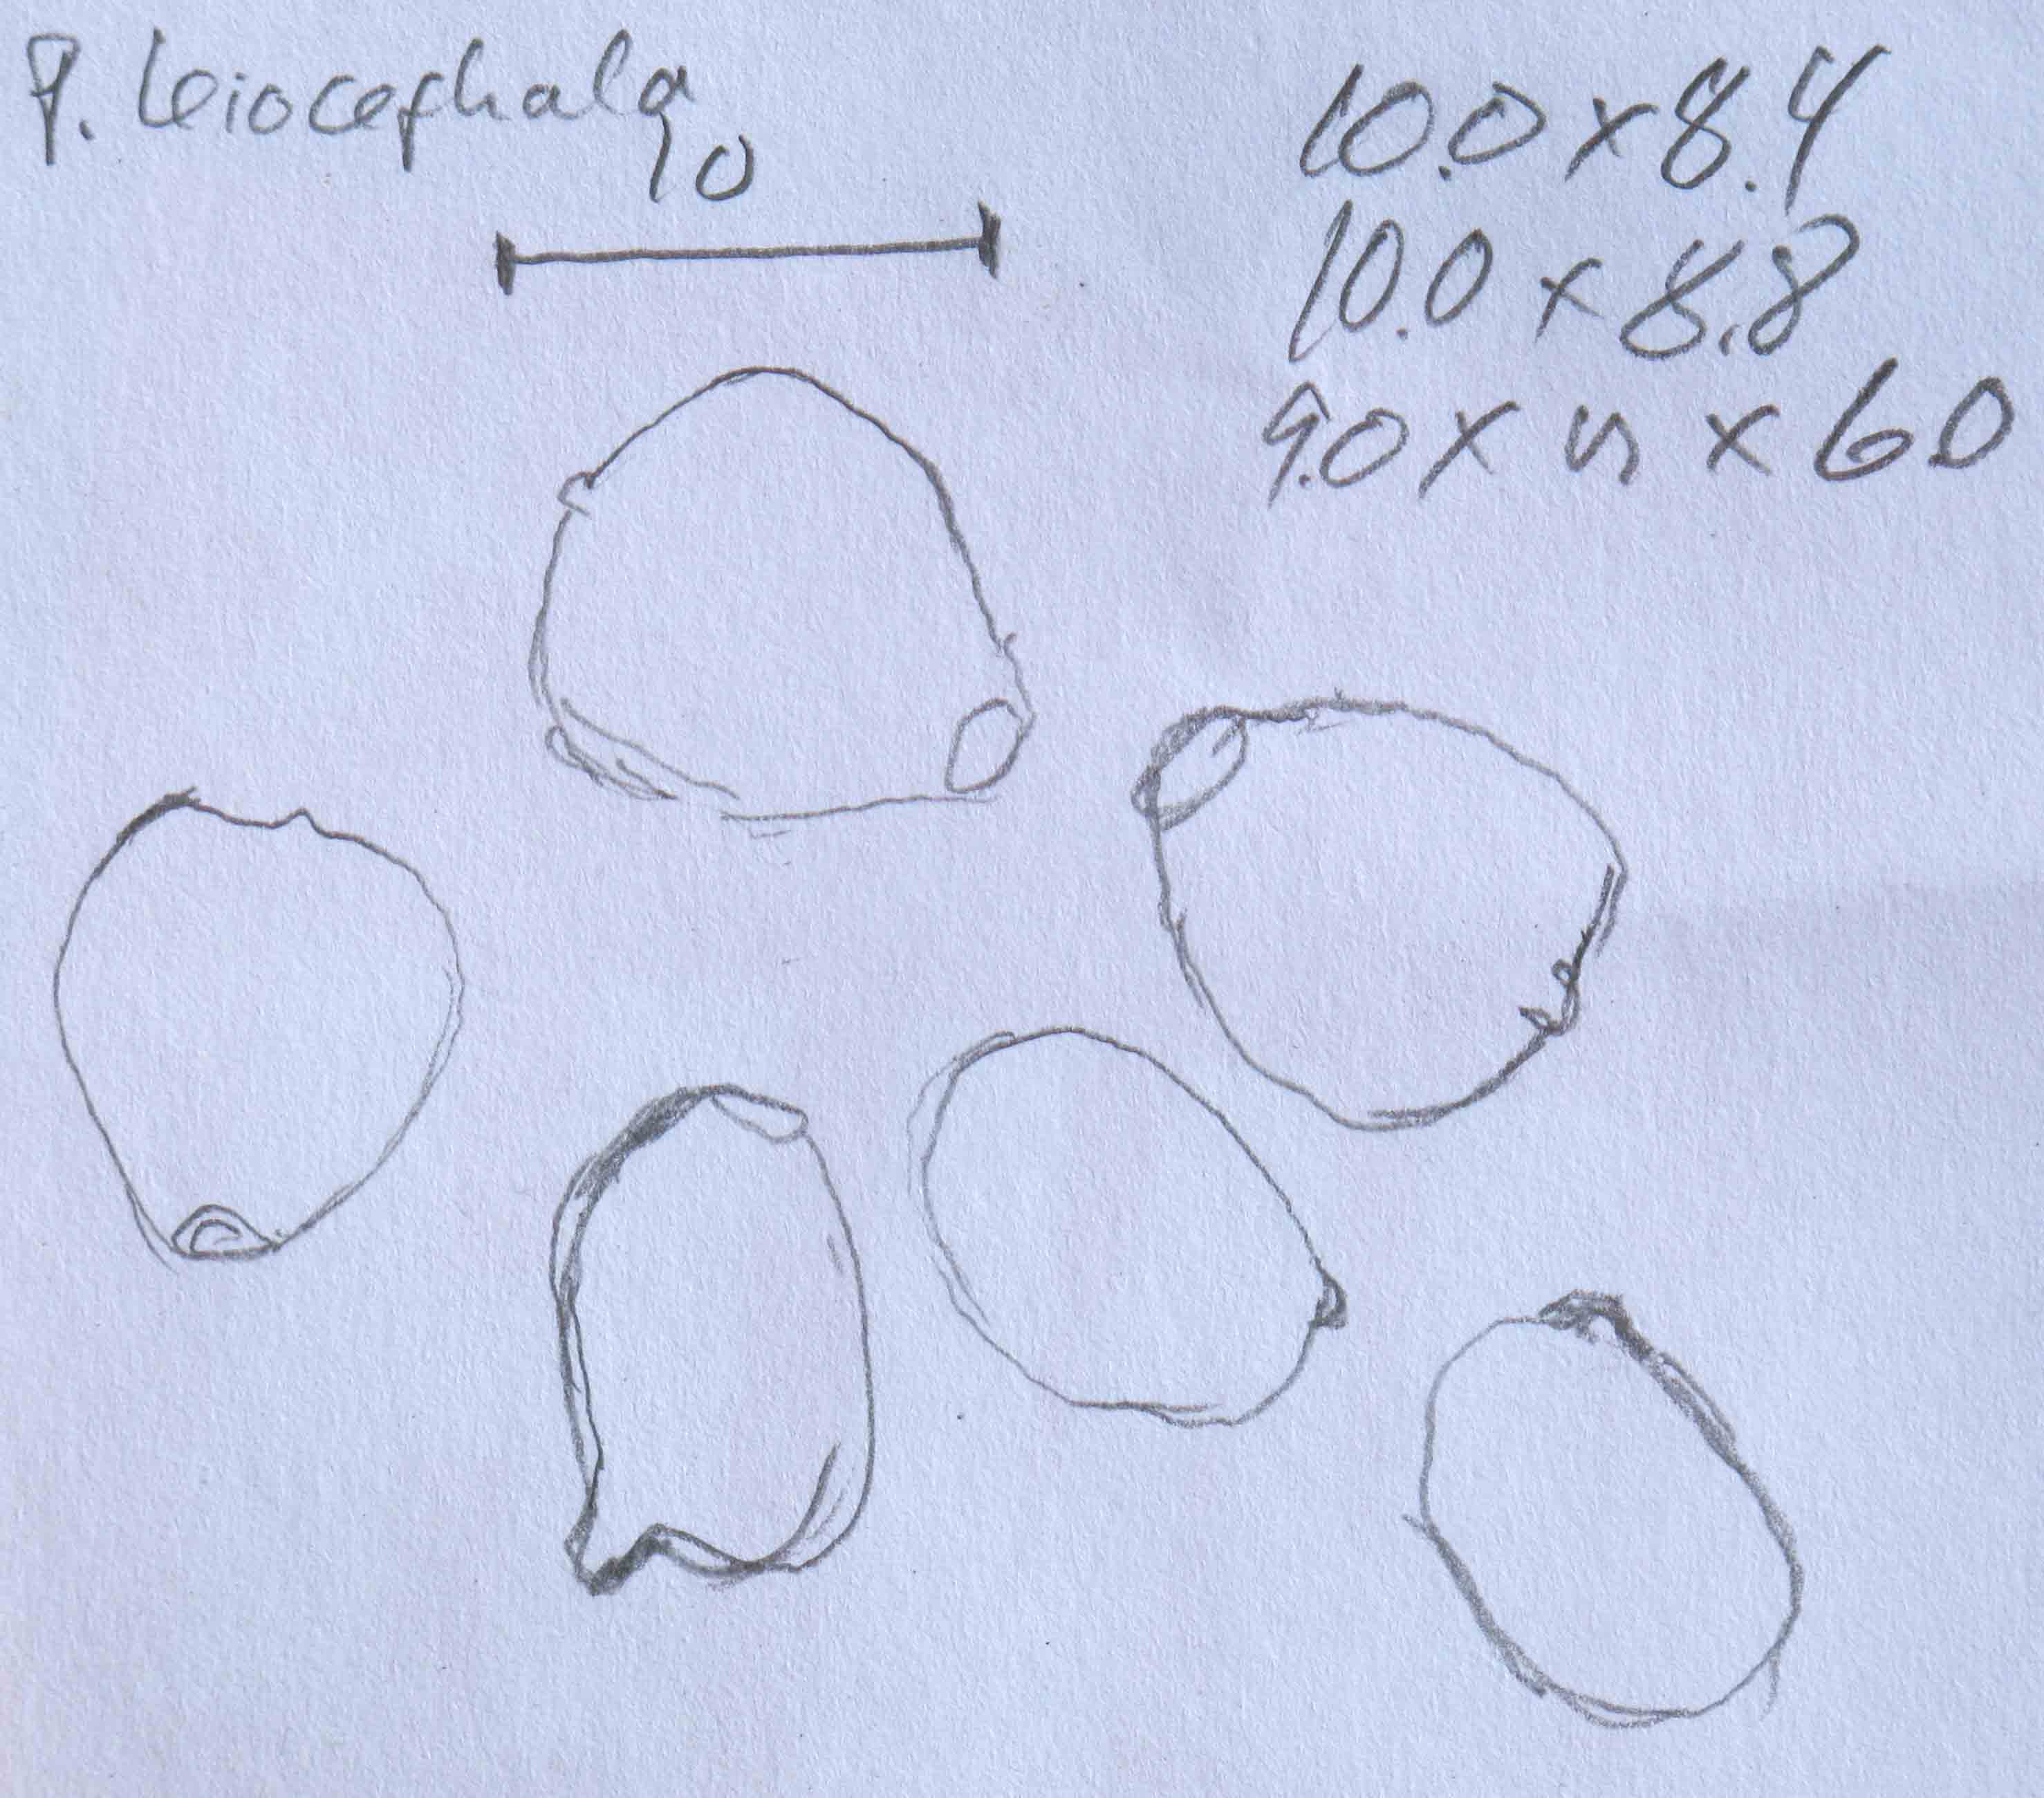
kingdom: Fungi
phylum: Basidiomycota
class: Agaricomycetes
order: Agaricales
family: Psathyrellaceae
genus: Parasola
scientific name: Parasola lactea
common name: glat hjulhat
